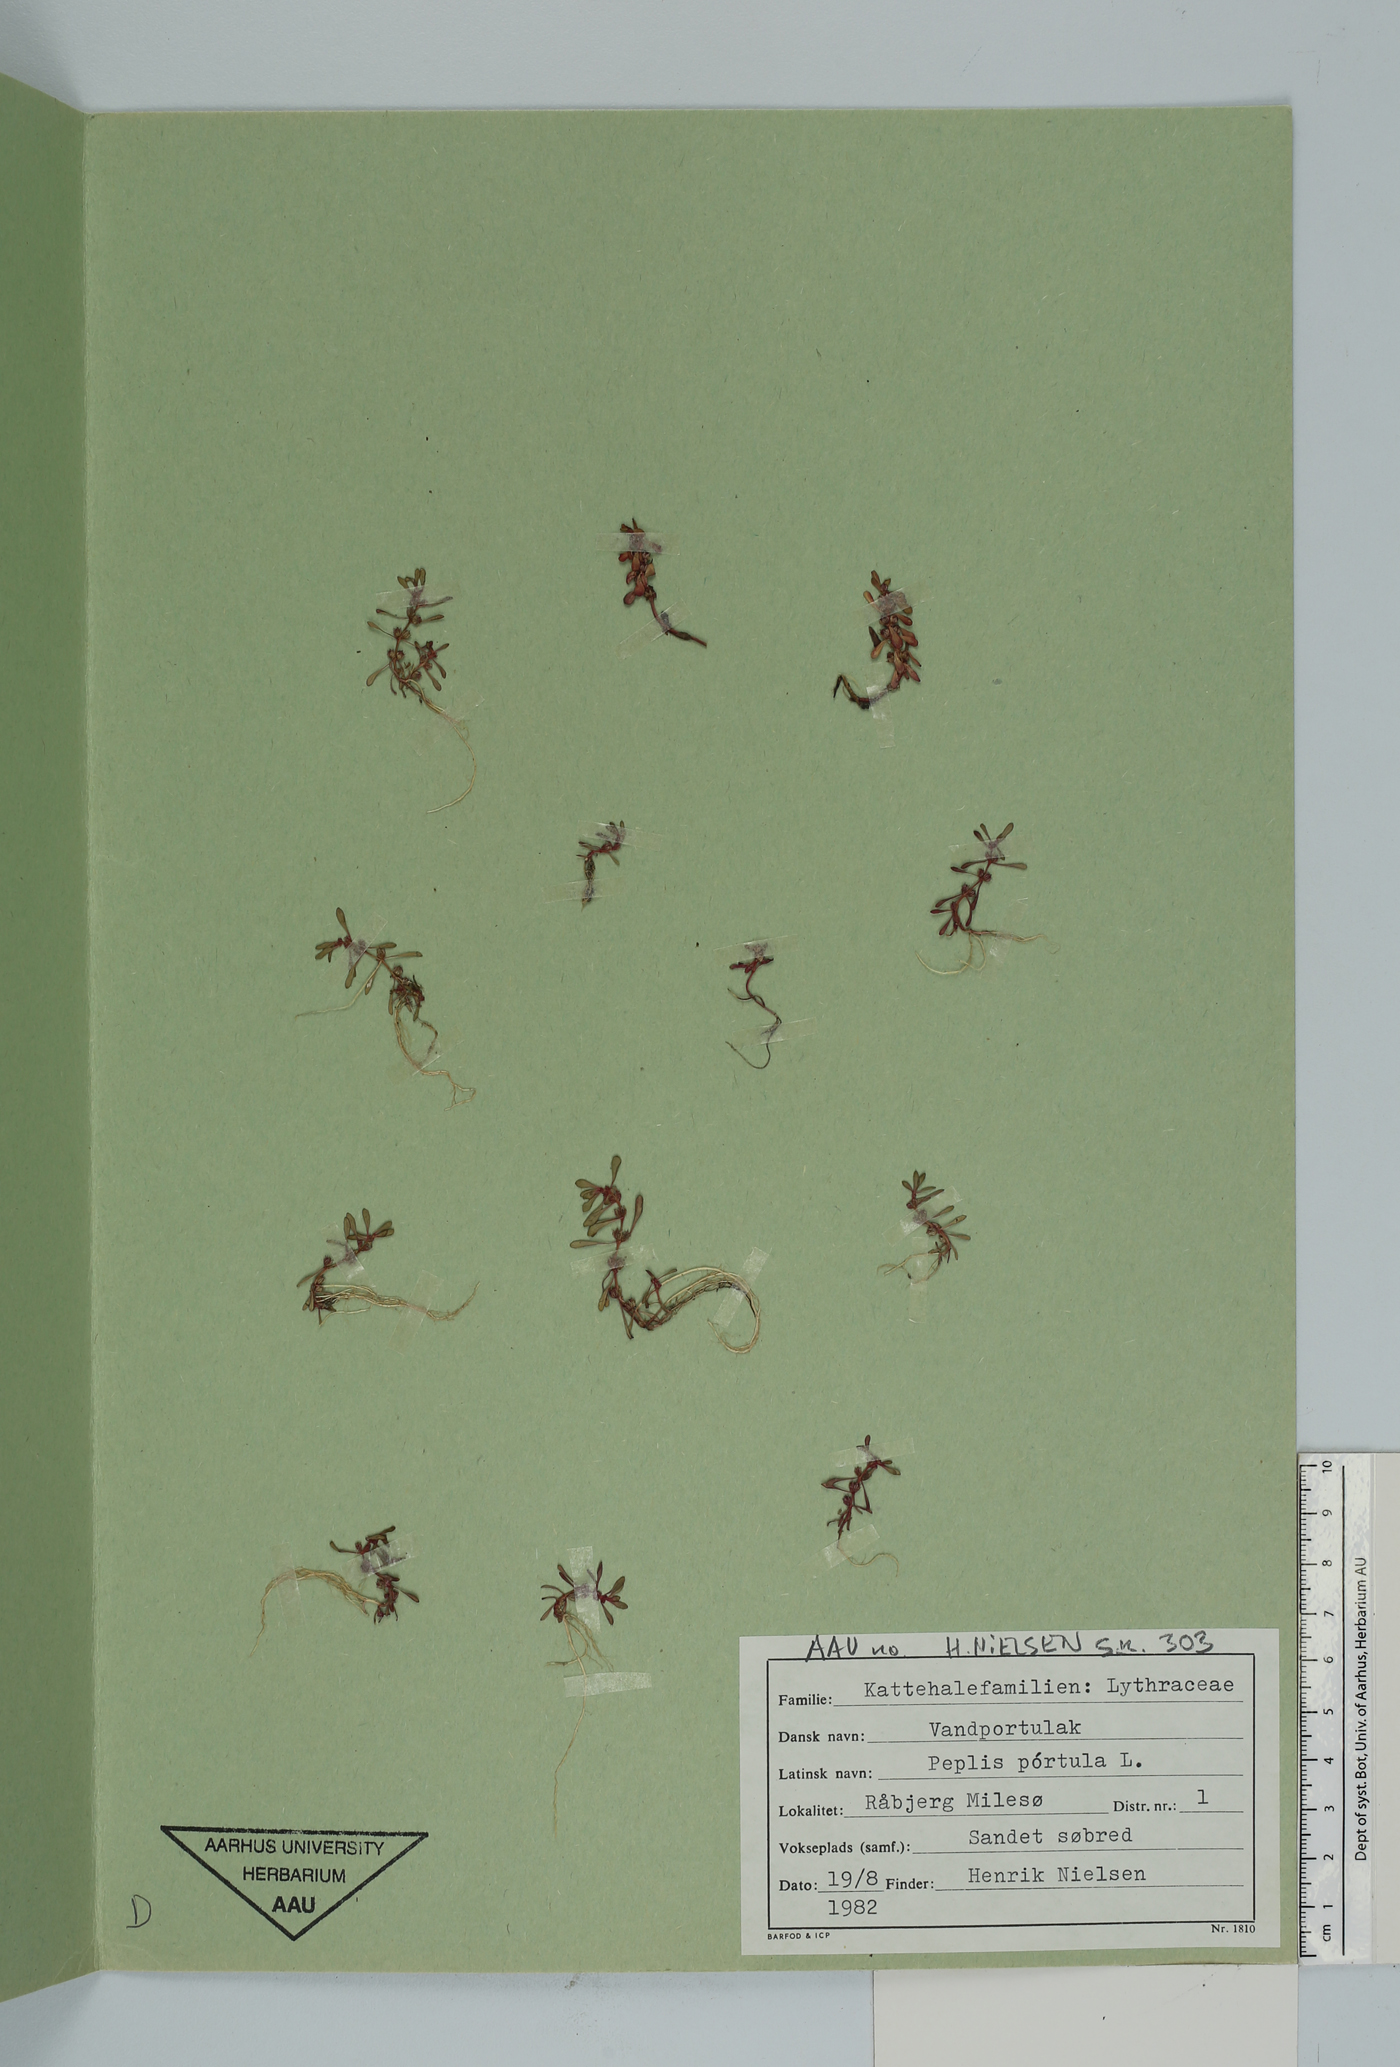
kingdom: Plantae
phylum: Tracheophyta
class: Magnoliopsida
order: Myrtales
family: Lythraceae
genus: Lythrum
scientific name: Lythrum portula
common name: Water purslane
